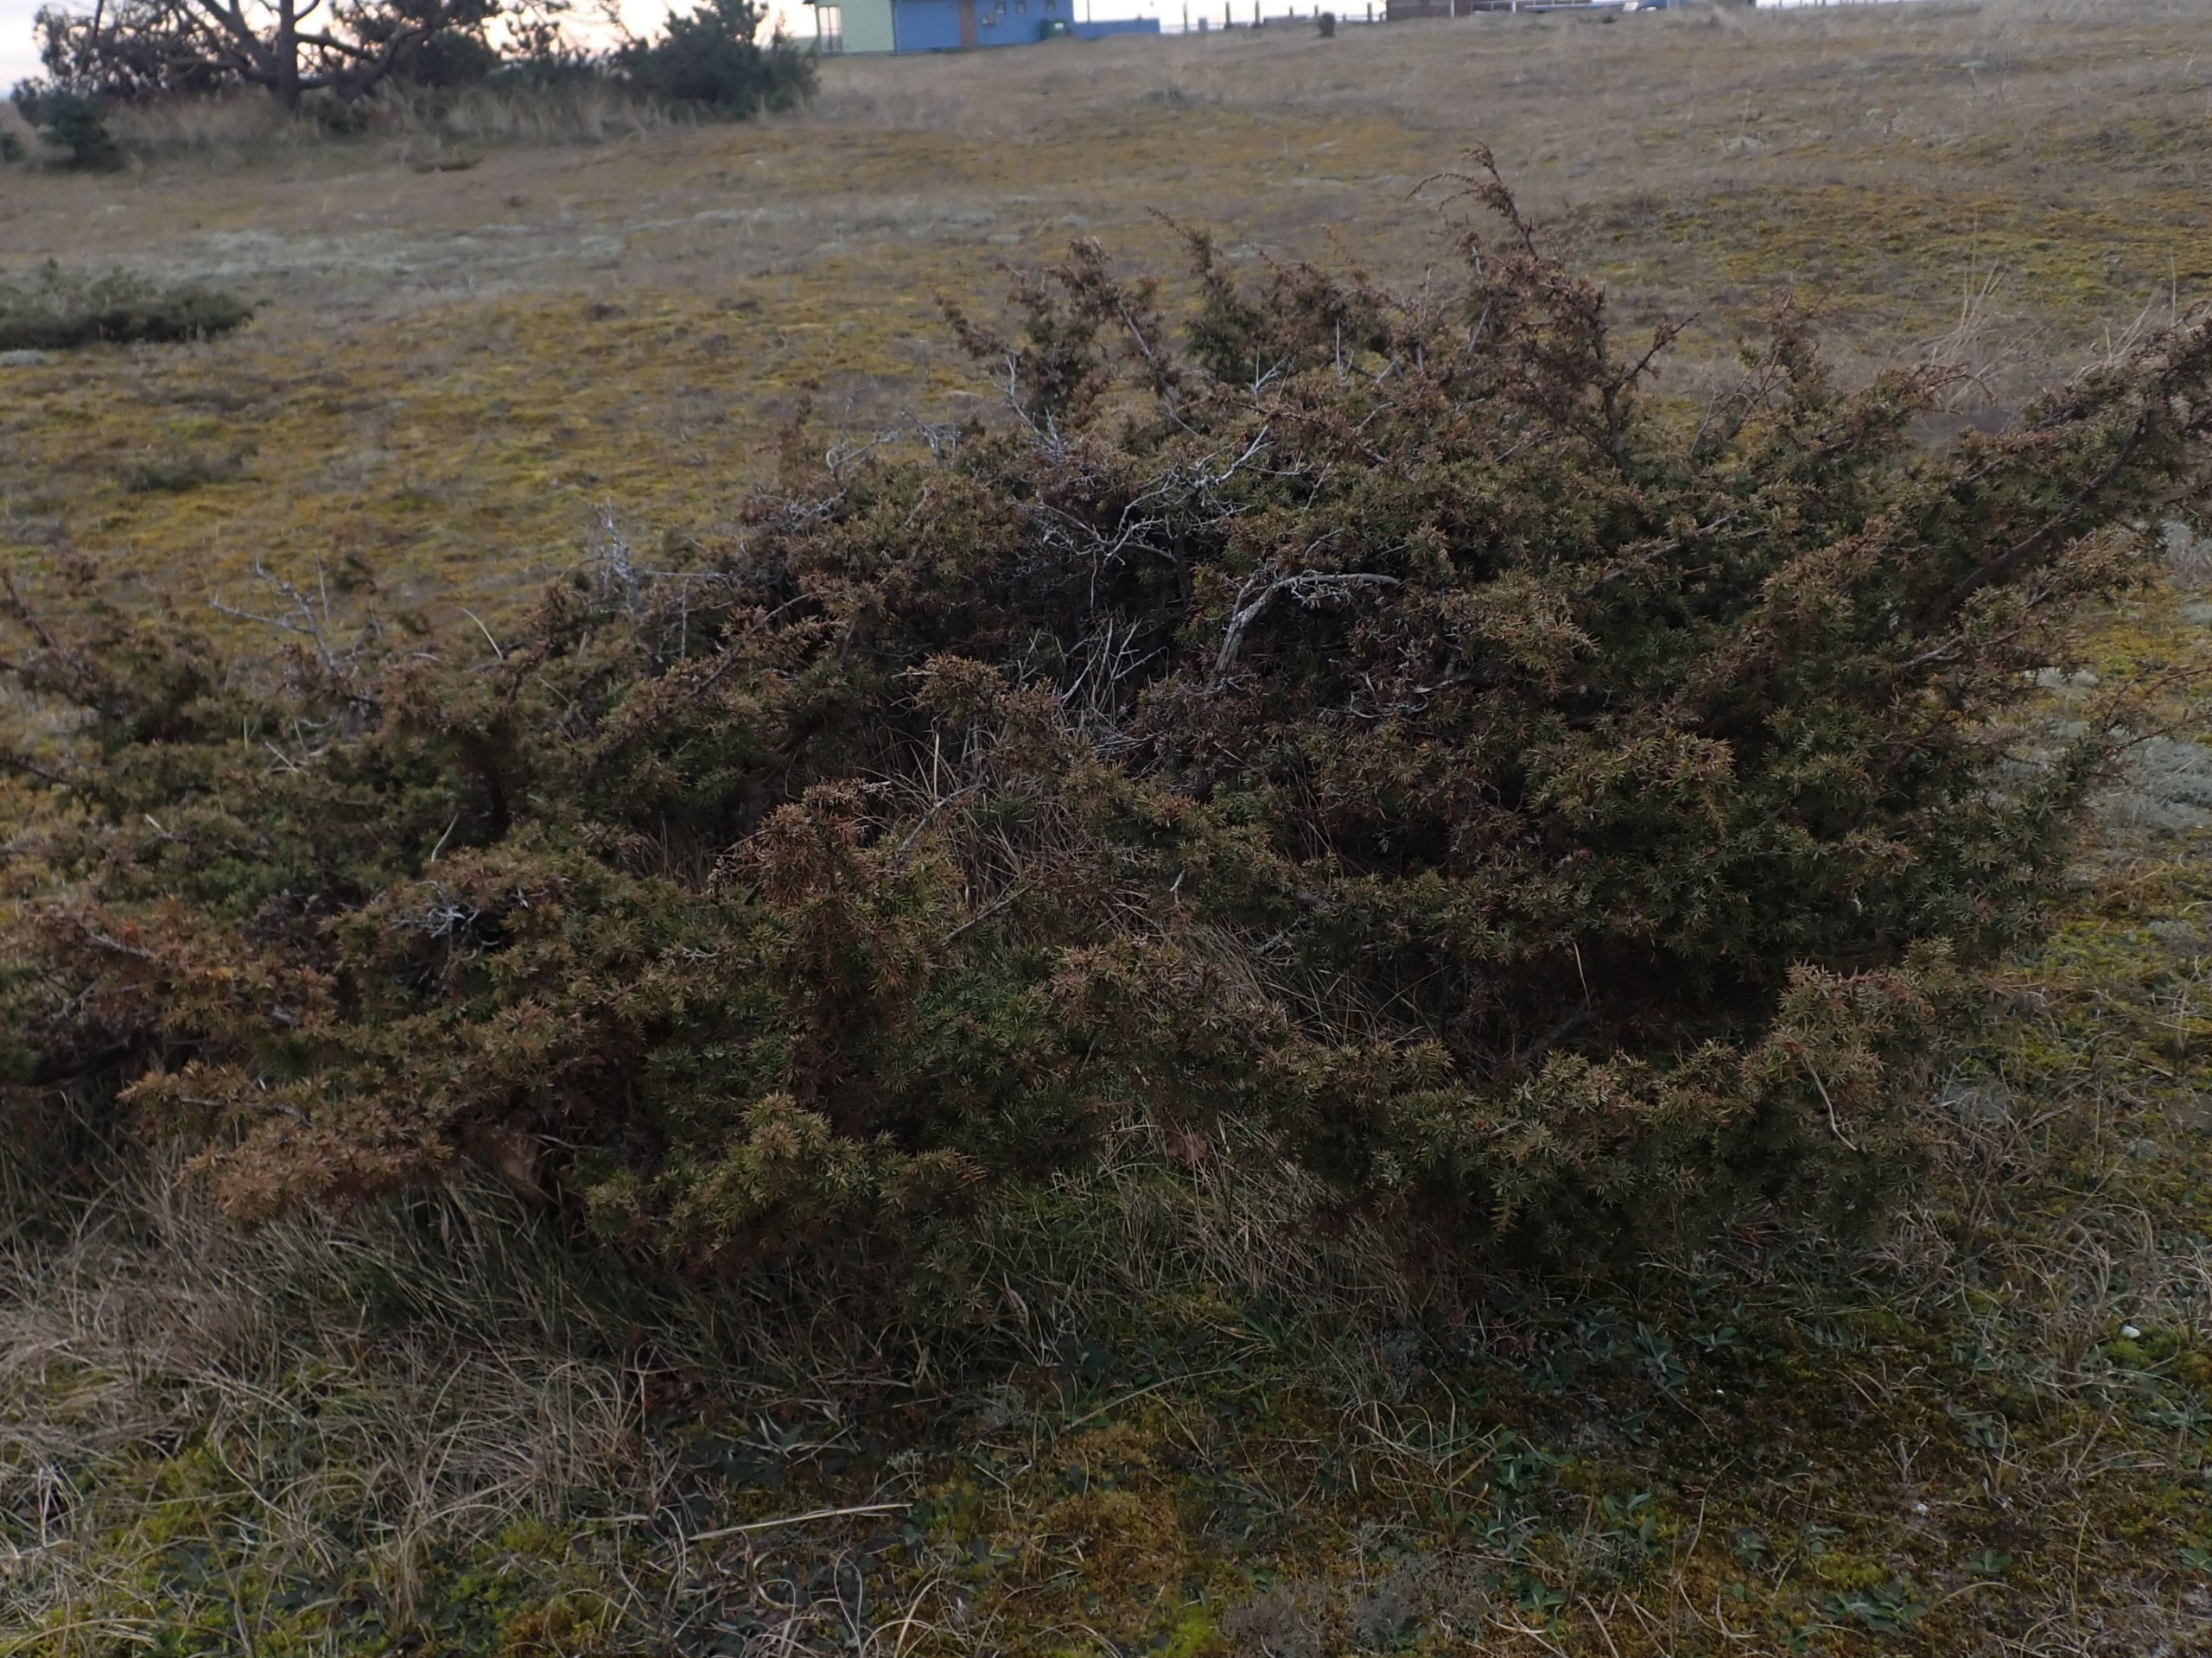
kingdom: Plantae
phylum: Tracheophyta
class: Pinopsida
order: Pinales
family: Cupressaceae
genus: Juniperus
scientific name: Juniperus communis
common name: Almindelig ene
